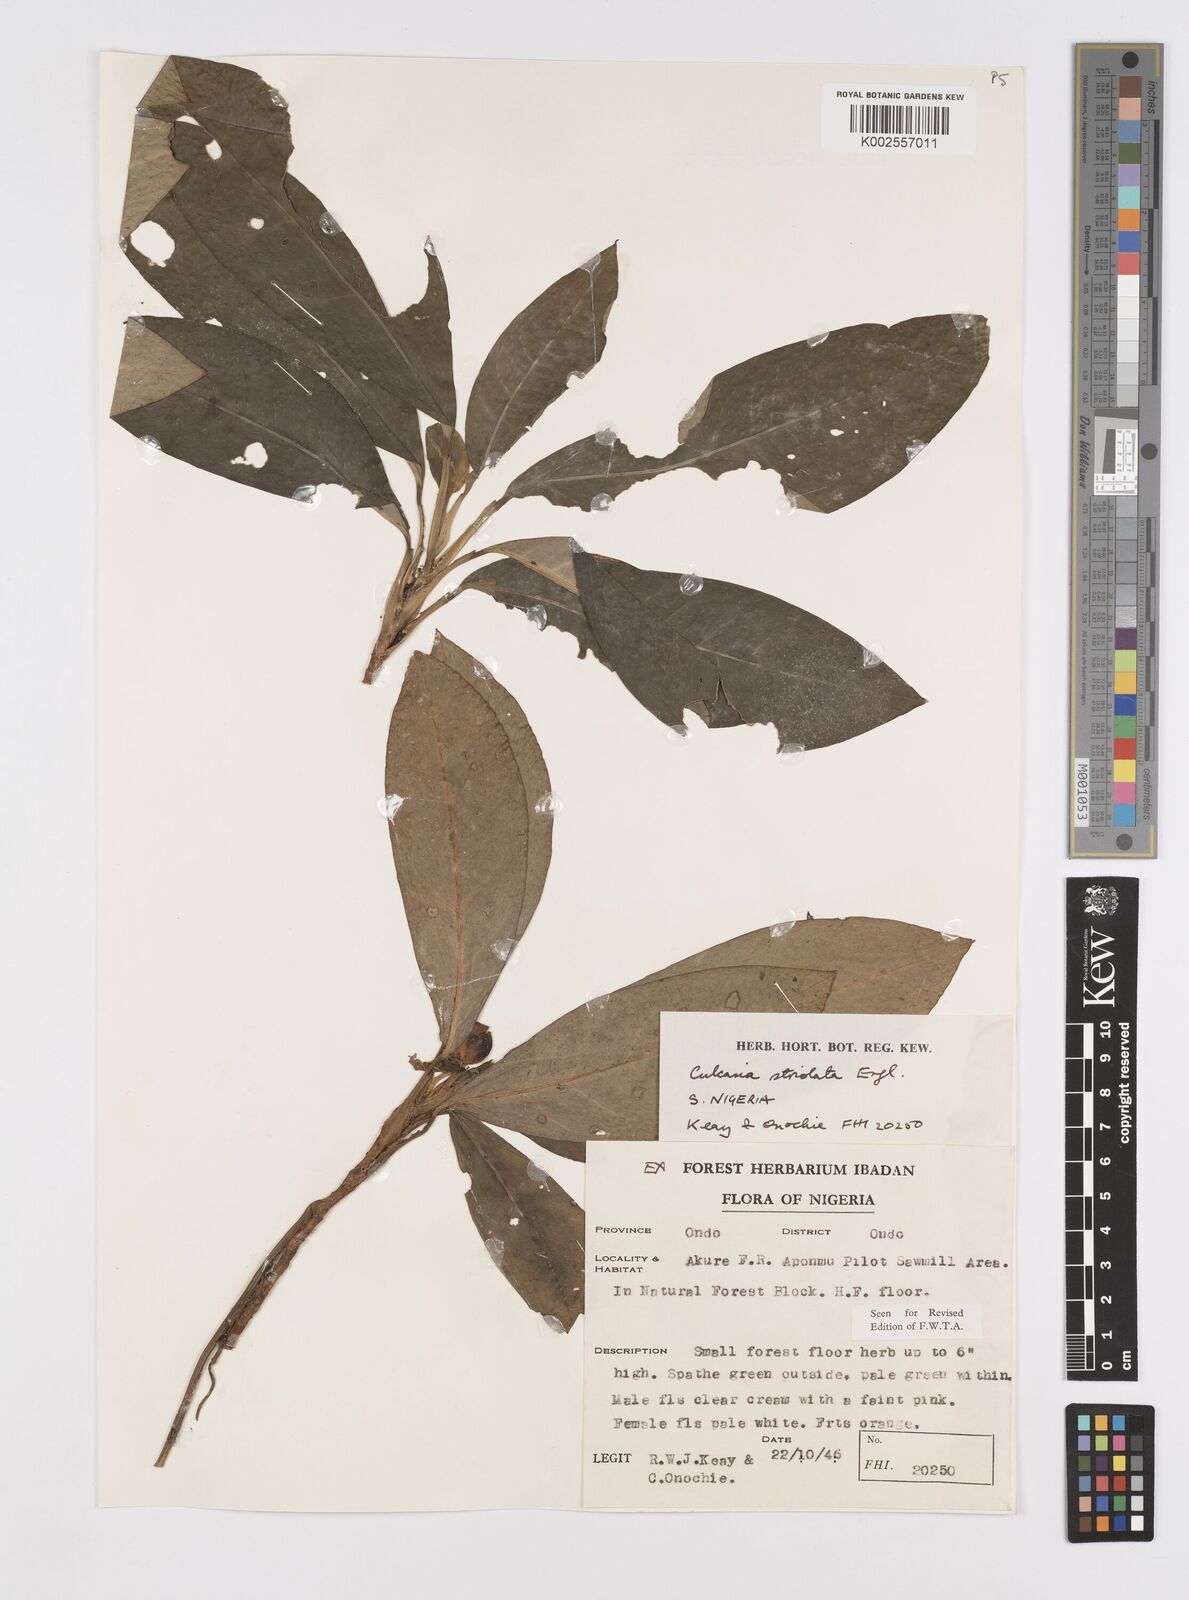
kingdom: Plantae
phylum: Tracheophyta
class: Liliopsida
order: Alismatales
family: Araceae
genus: Culcasia
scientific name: Culcasia striolata
